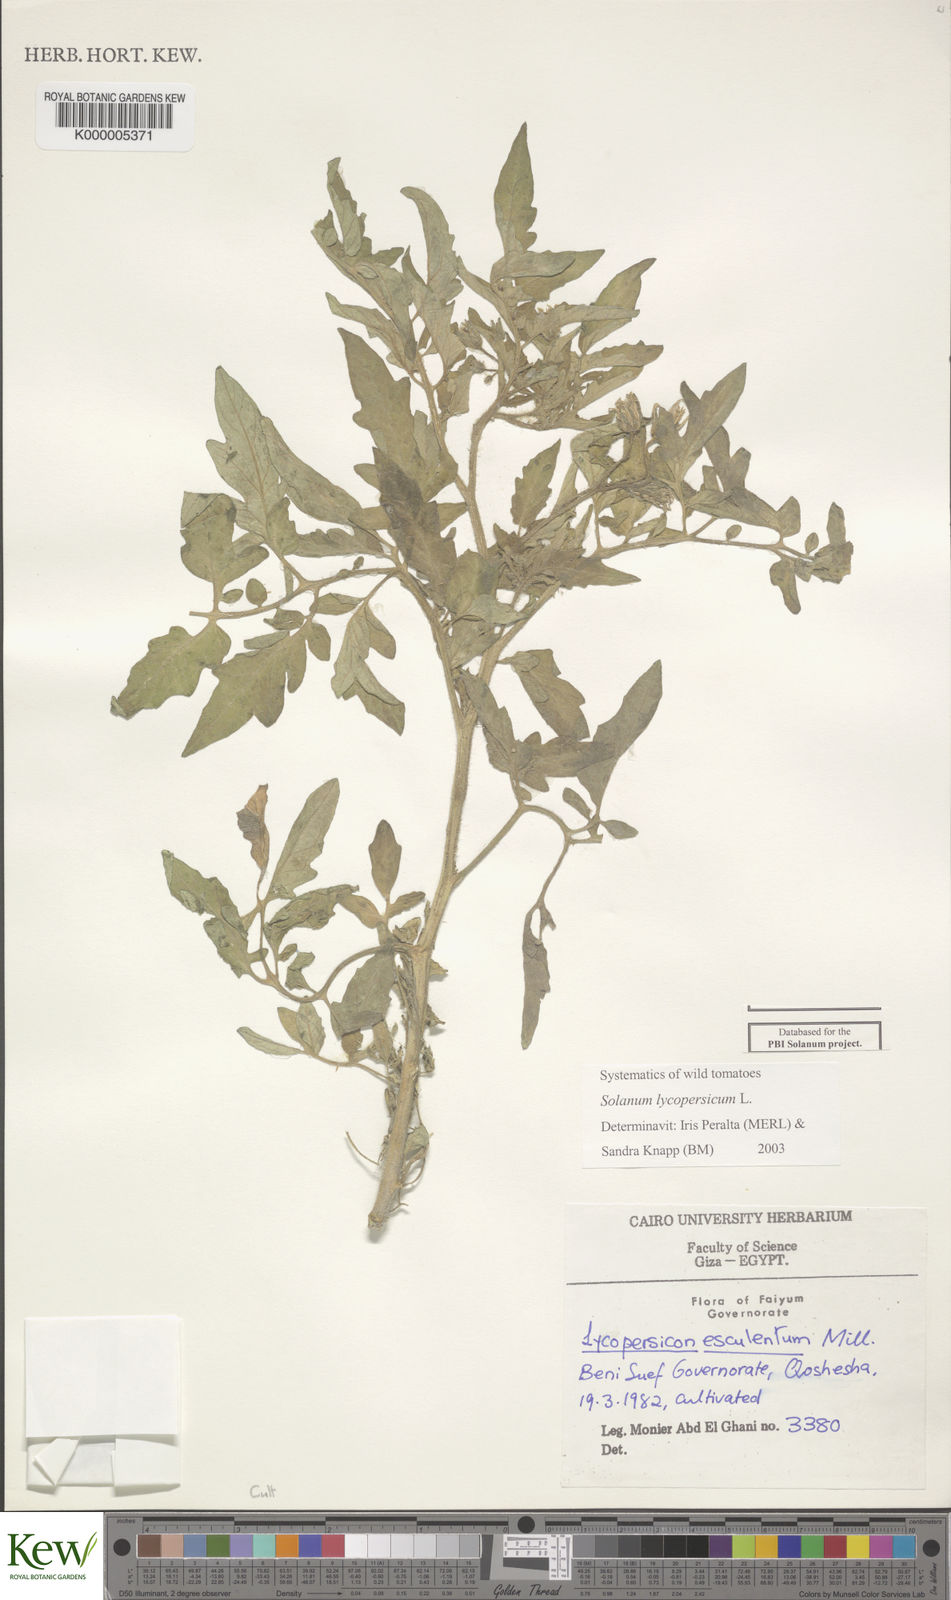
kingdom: Plantae
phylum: Tracheophyta
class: Magnoliopsida
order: Solanales
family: Solanaceae
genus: Solanum
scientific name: Solanum lycopersicum
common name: Garden tomato
